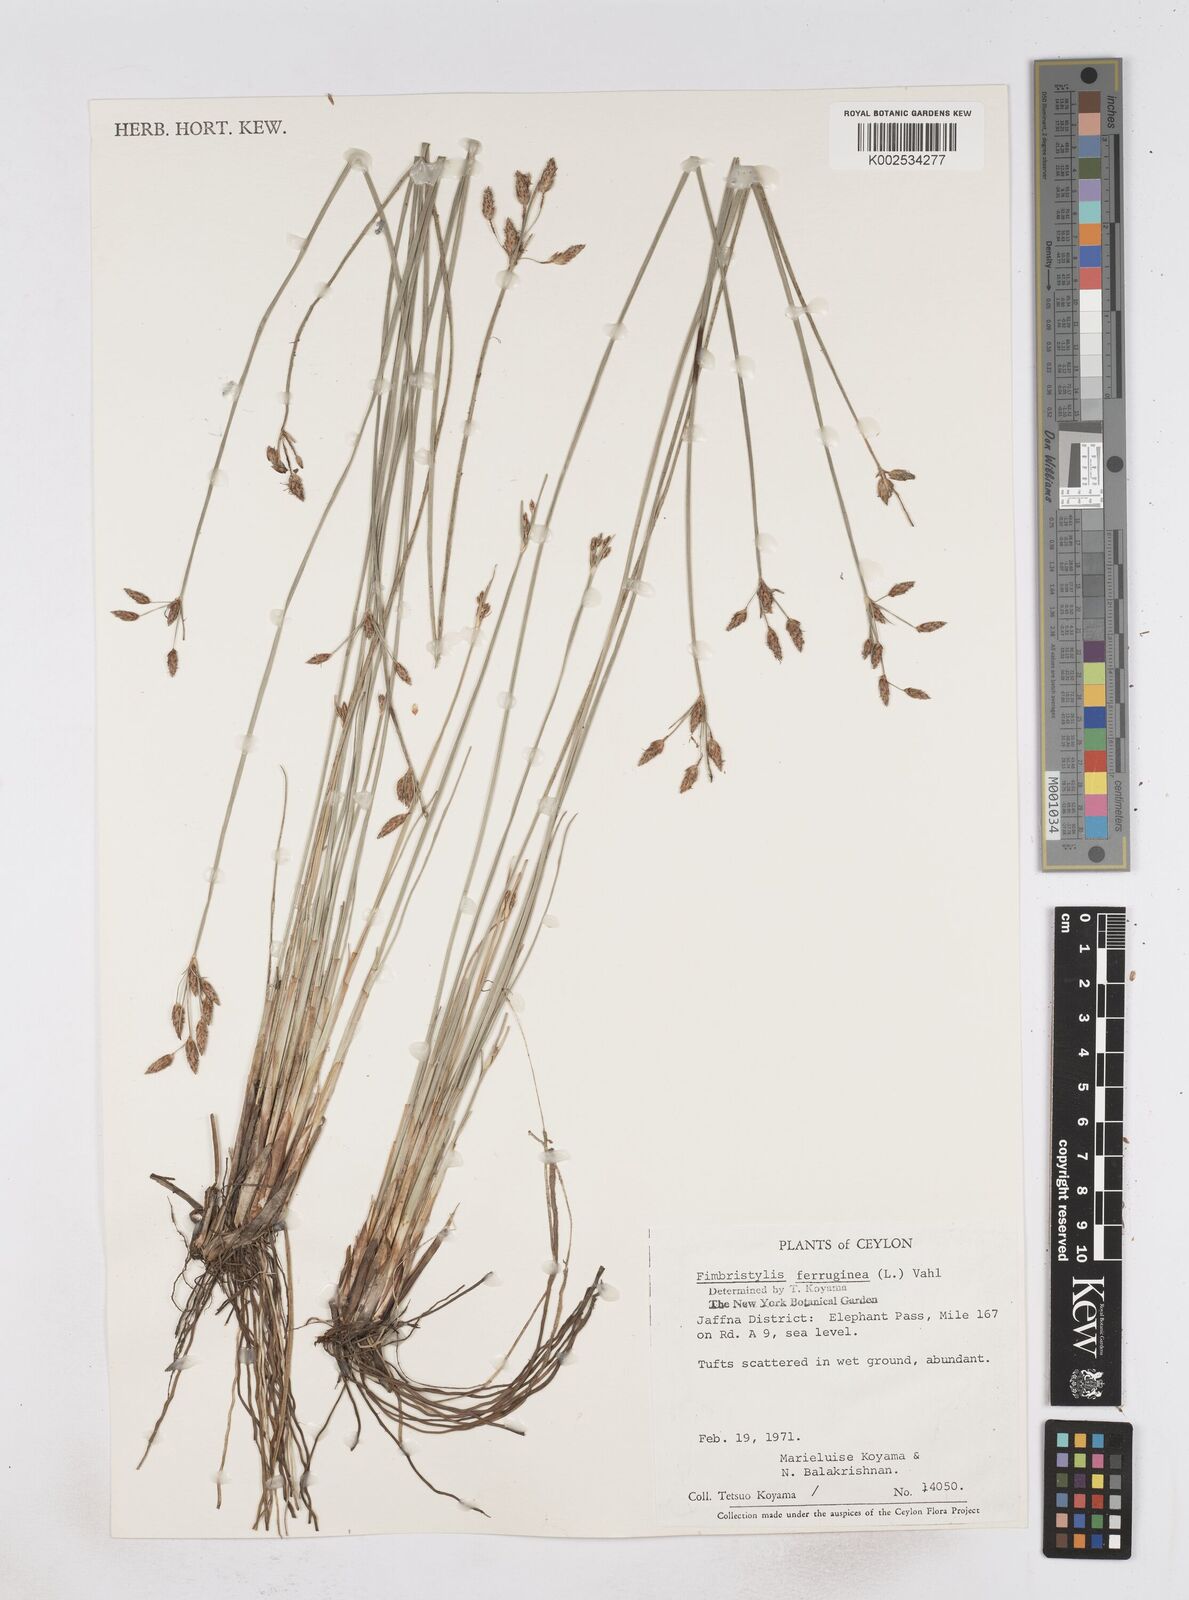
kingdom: Plantae
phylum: Tracheophyta
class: Liliopsida
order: Poales
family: Cyperaceae
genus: Fimbristylis
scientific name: Fimbristylis ferruginea
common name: West indian fimbry
